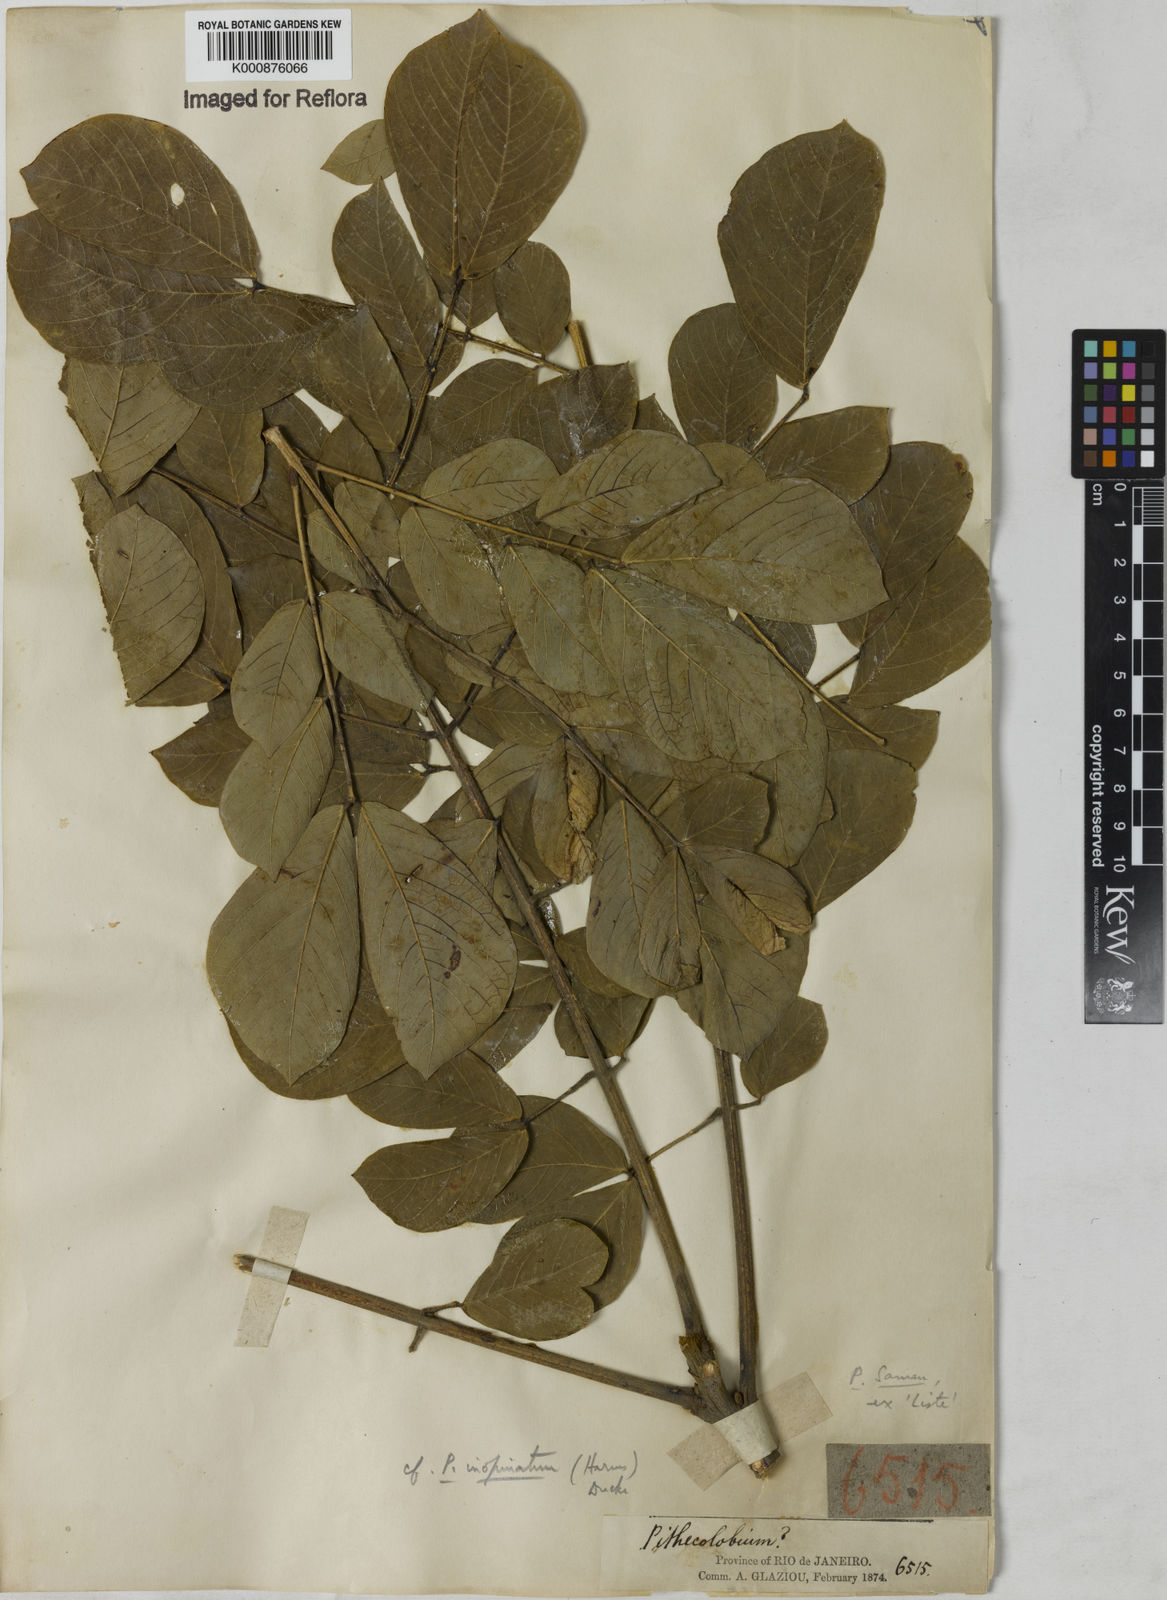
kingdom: Plantae
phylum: Tracheophyta
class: Magnoliopsida
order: Fabales
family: Fabaceae
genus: Samanea
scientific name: Samanea inopinata
